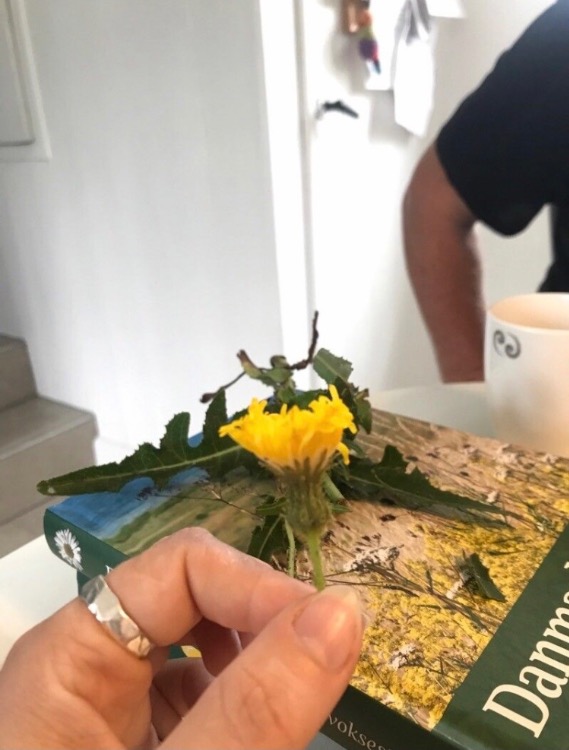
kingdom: Plantae
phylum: Tracheophyta
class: Magnoliopsida
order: Asterales
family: Asteraceae
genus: Sonchus
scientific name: Sonchus arvensis
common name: Ager-svinemælk
